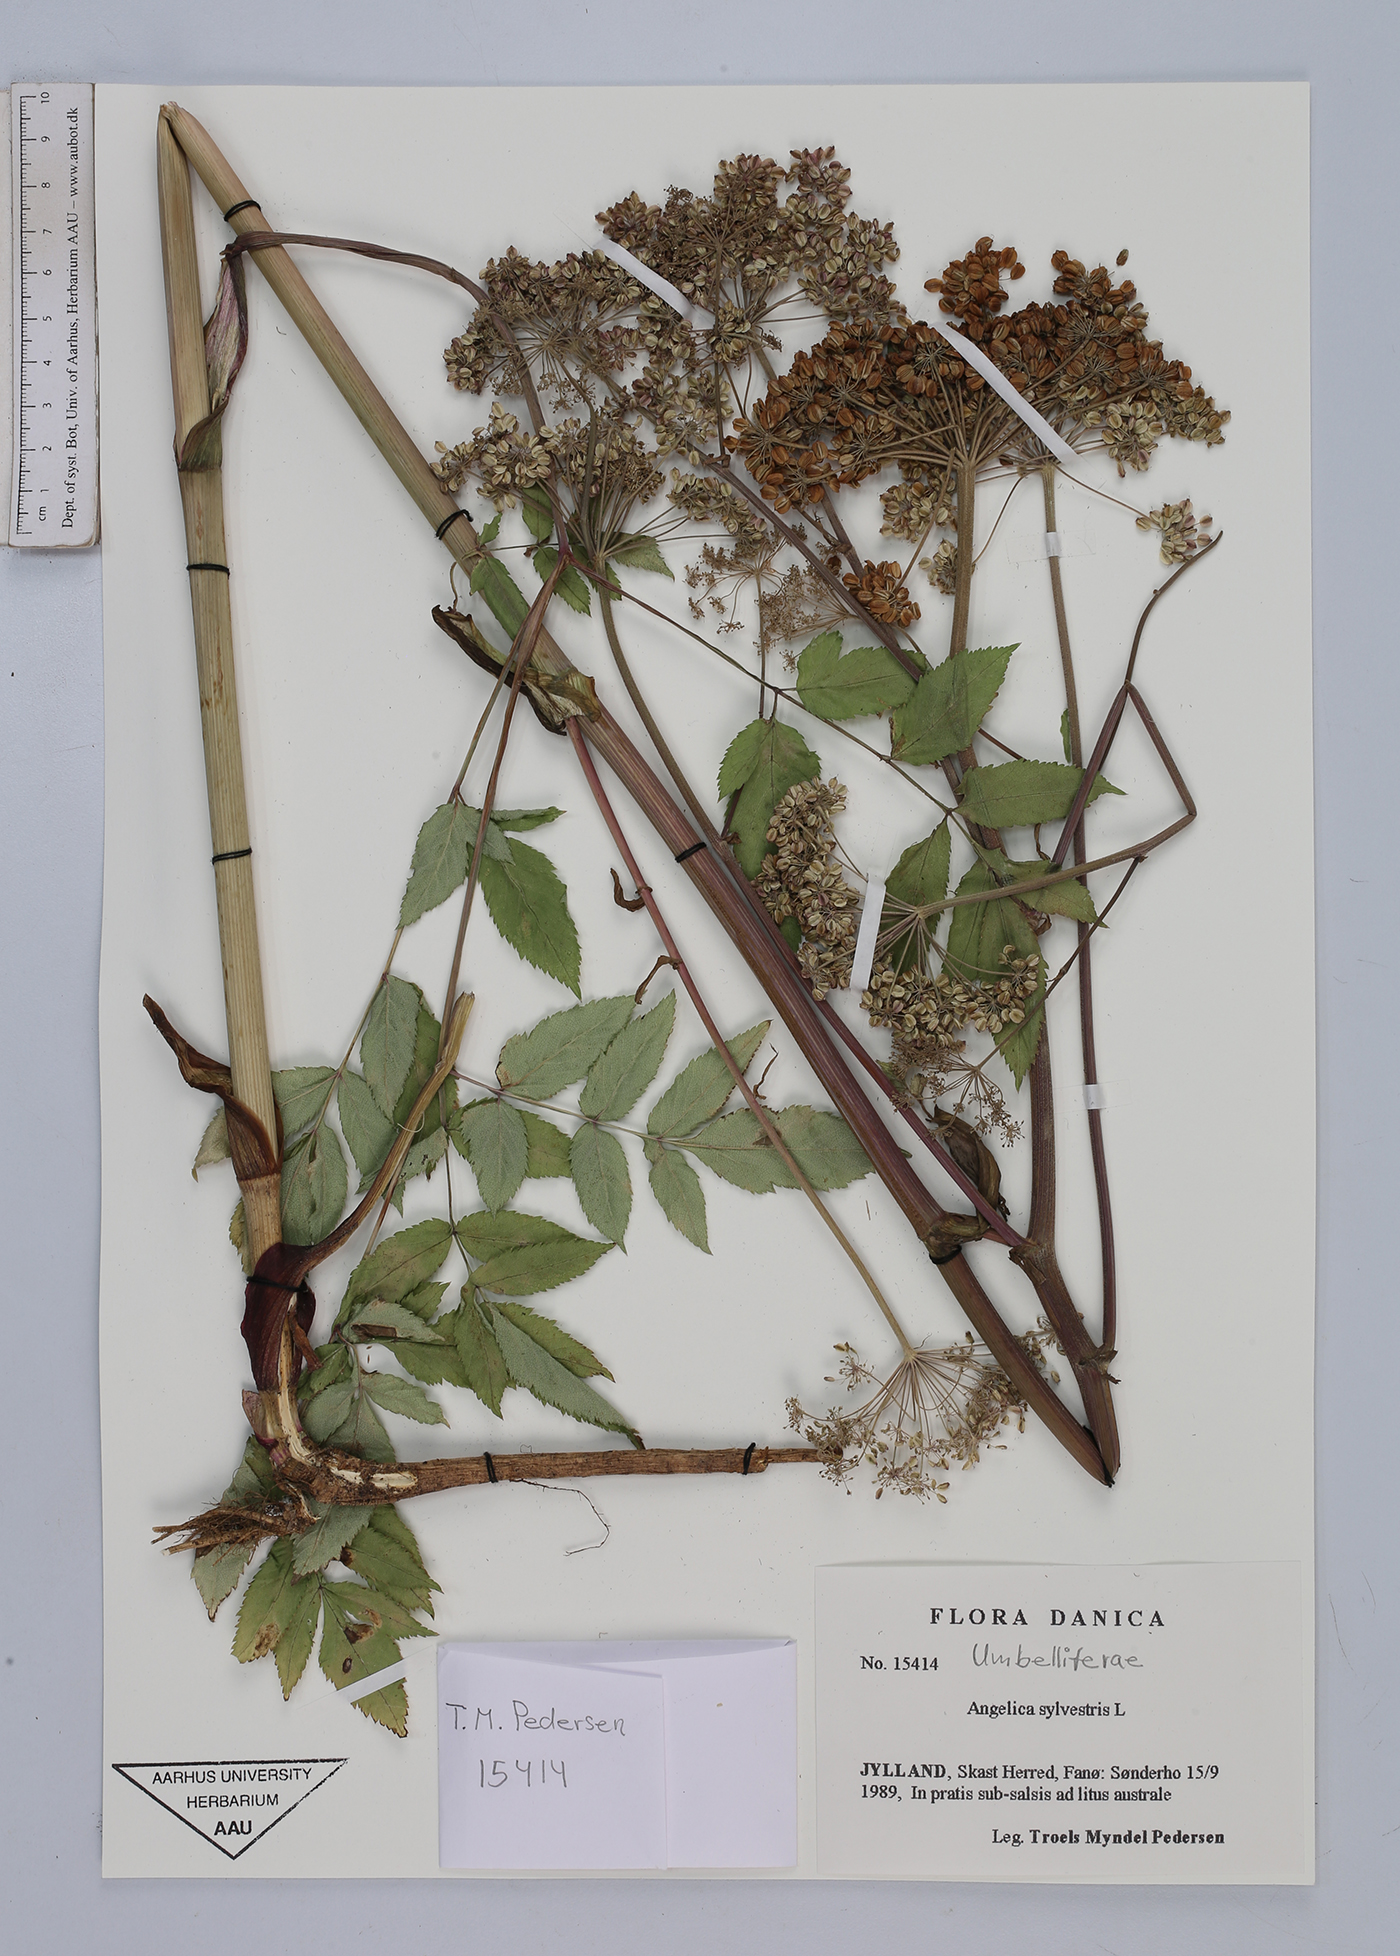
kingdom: Plantae
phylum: Tracheophyta
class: Magnoliopsida
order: Apiales
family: Apiaceae
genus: Angelica
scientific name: Angelica sylvestris
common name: Wild angelica
